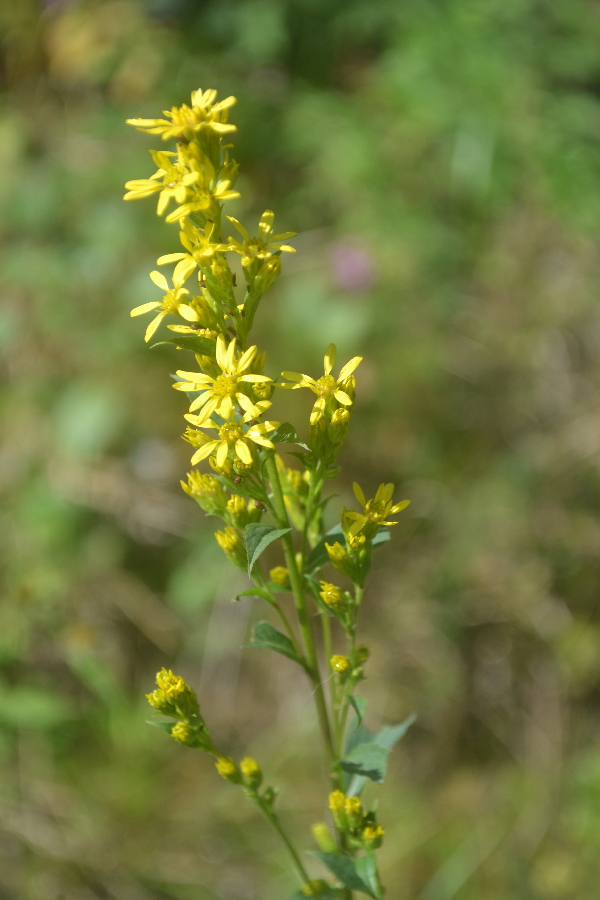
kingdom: Plantae
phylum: Tracheophyta
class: Magnoliopsida
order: Asterales
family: Asteraceae
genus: Solidago
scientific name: Solidago virgaurea
